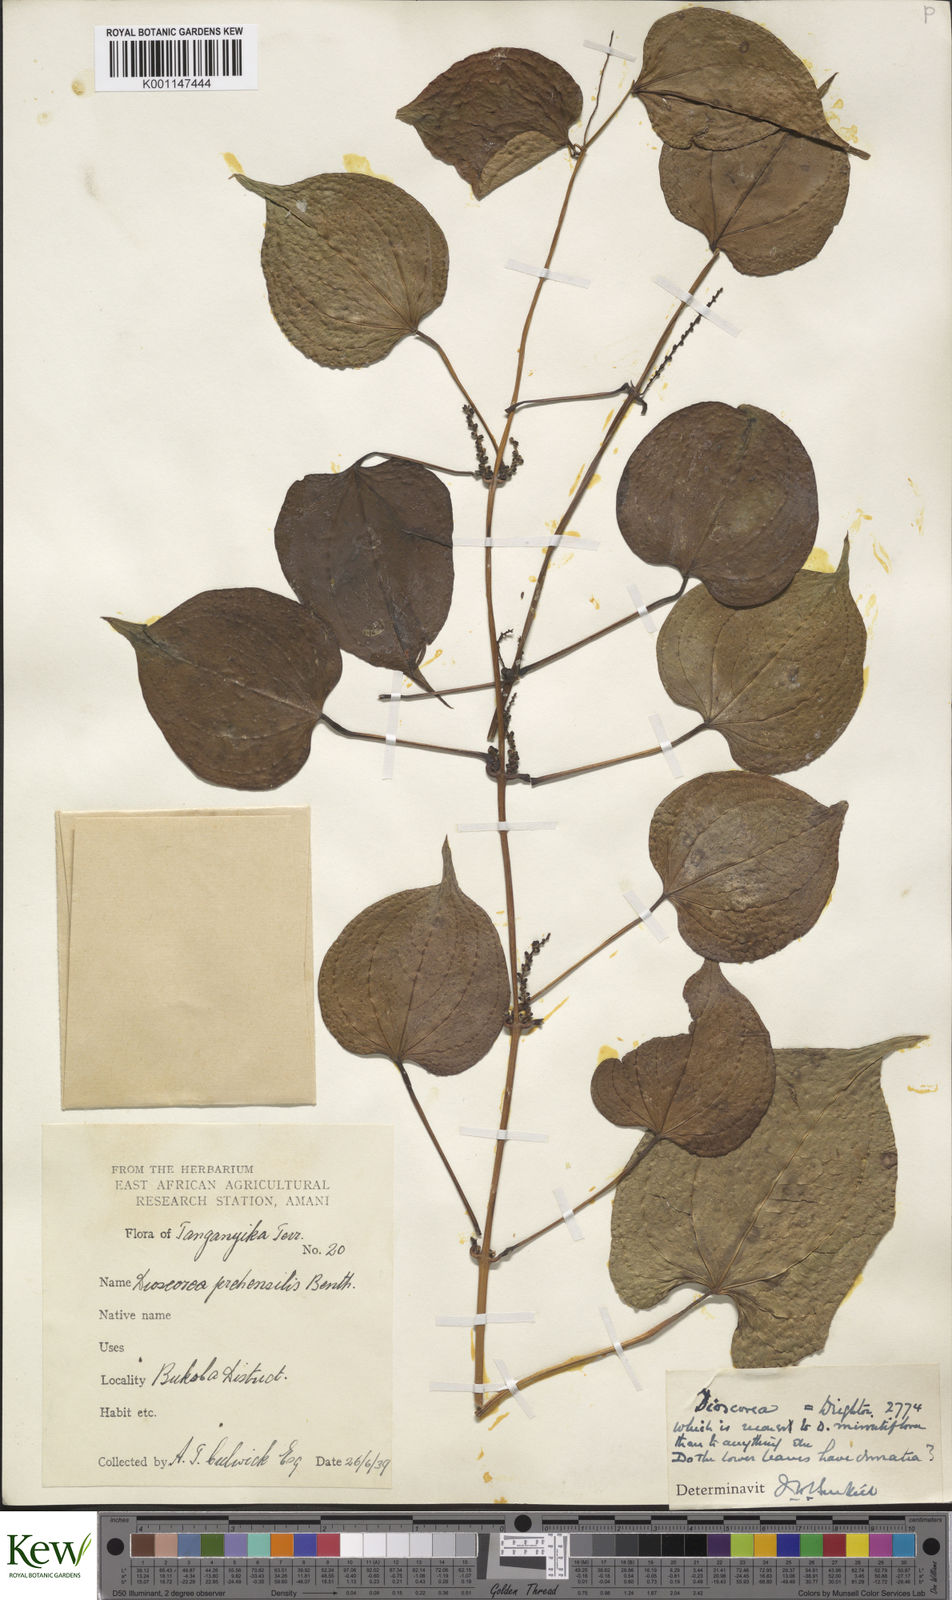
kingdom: Plantae
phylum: Tracheophyta
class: Liliopsida
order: Dioscoreales
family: Dioscoreaceae
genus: Dioscorea
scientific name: Dioscorea minutiflora
